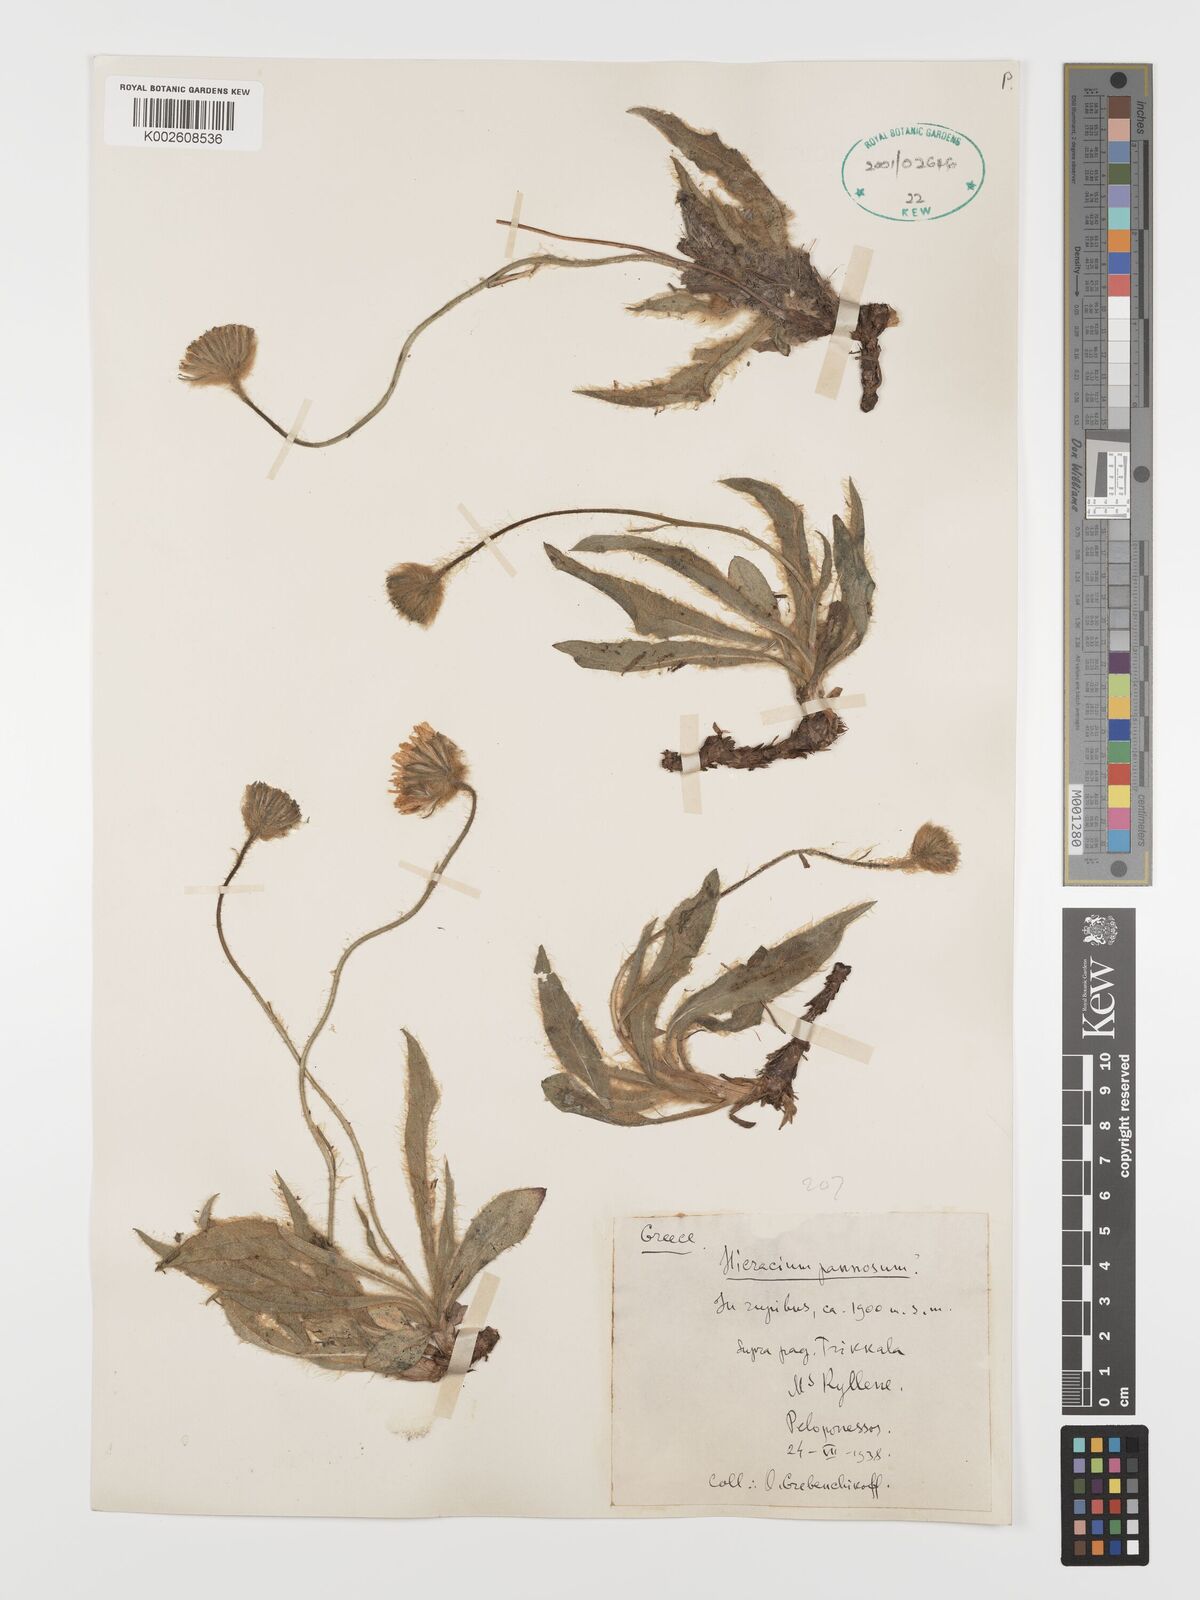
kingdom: Plantae
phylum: Tracheophyta
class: Magnoliopsida
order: Asterales
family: Asteraceae
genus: Hieracium
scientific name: Hieracium pannosum
